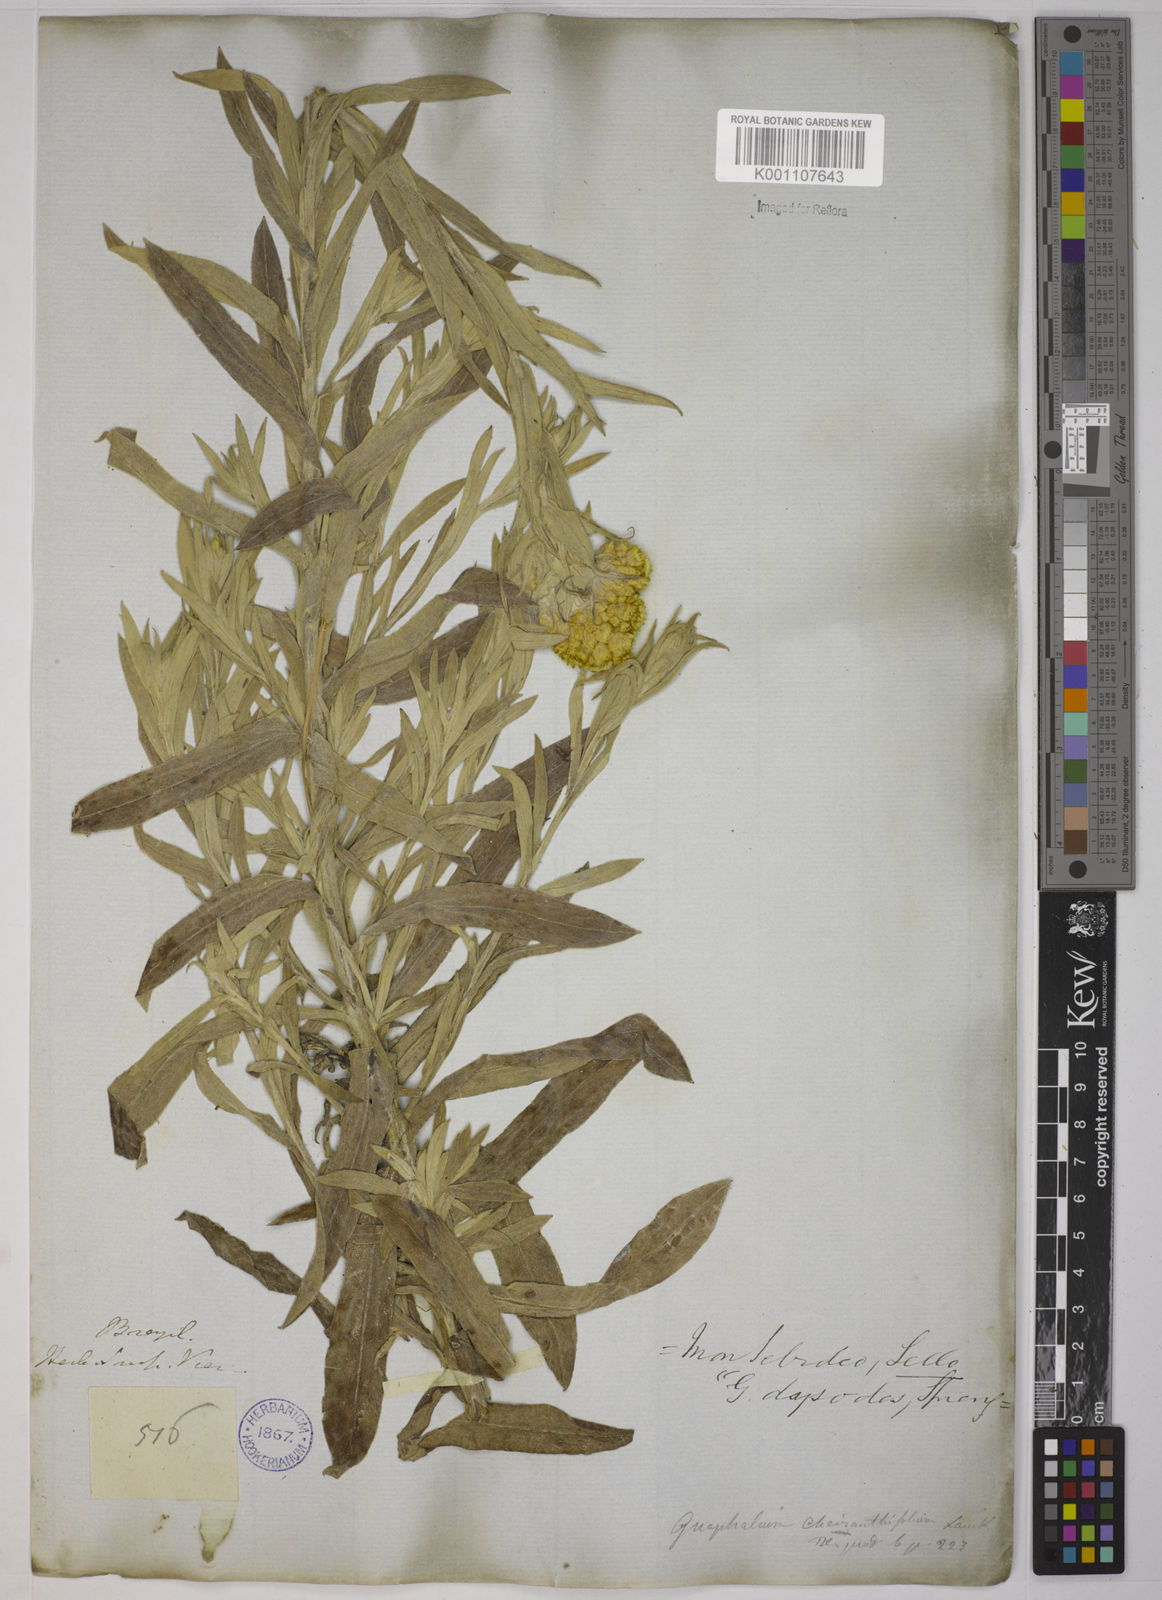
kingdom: Plantae
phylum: Tracheophyta
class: Magnoliopsida
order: Asterales
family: Asteraceae
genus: Pseudognaphalium
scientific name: Pseudognaphalium cheiranthifolium
